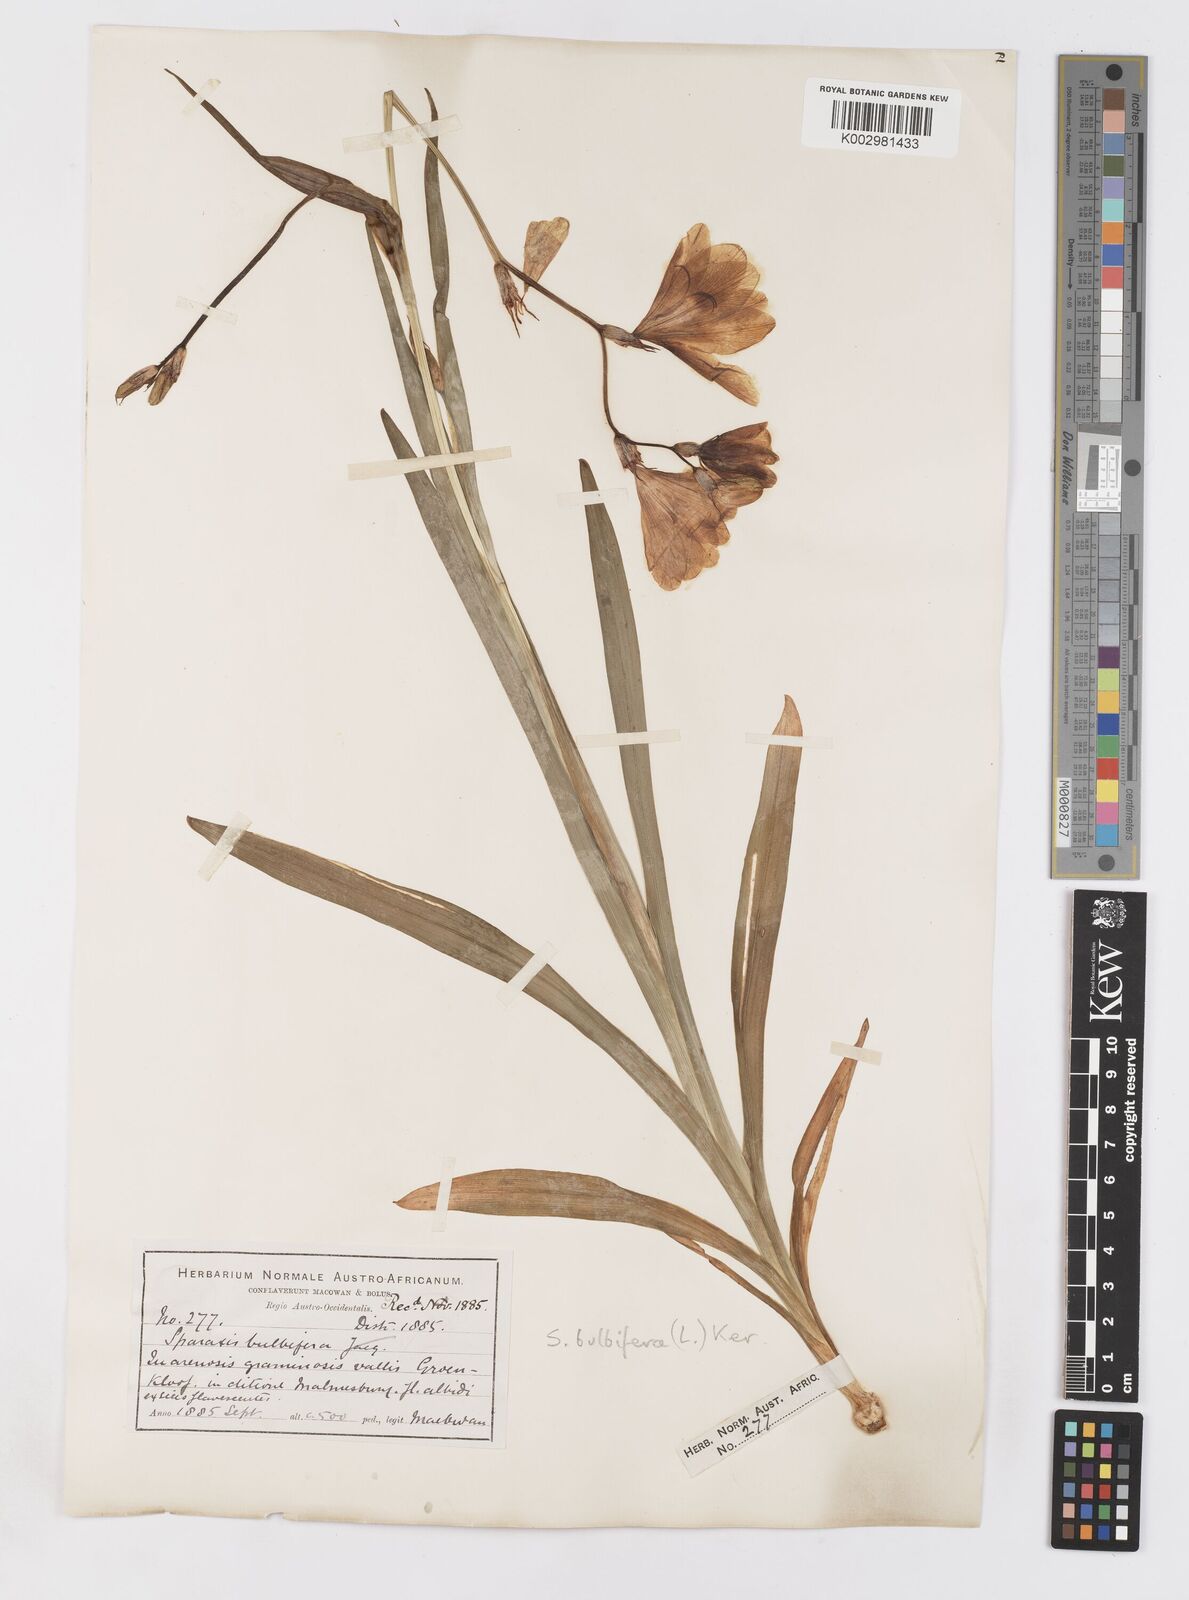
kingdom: Plantae
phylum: Tracheophyta
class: Liliopsida
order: Asparagales
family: Iridaceae
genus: Sparaxis
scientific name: Sparaxis bulbifera
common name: Harlequin-flower
